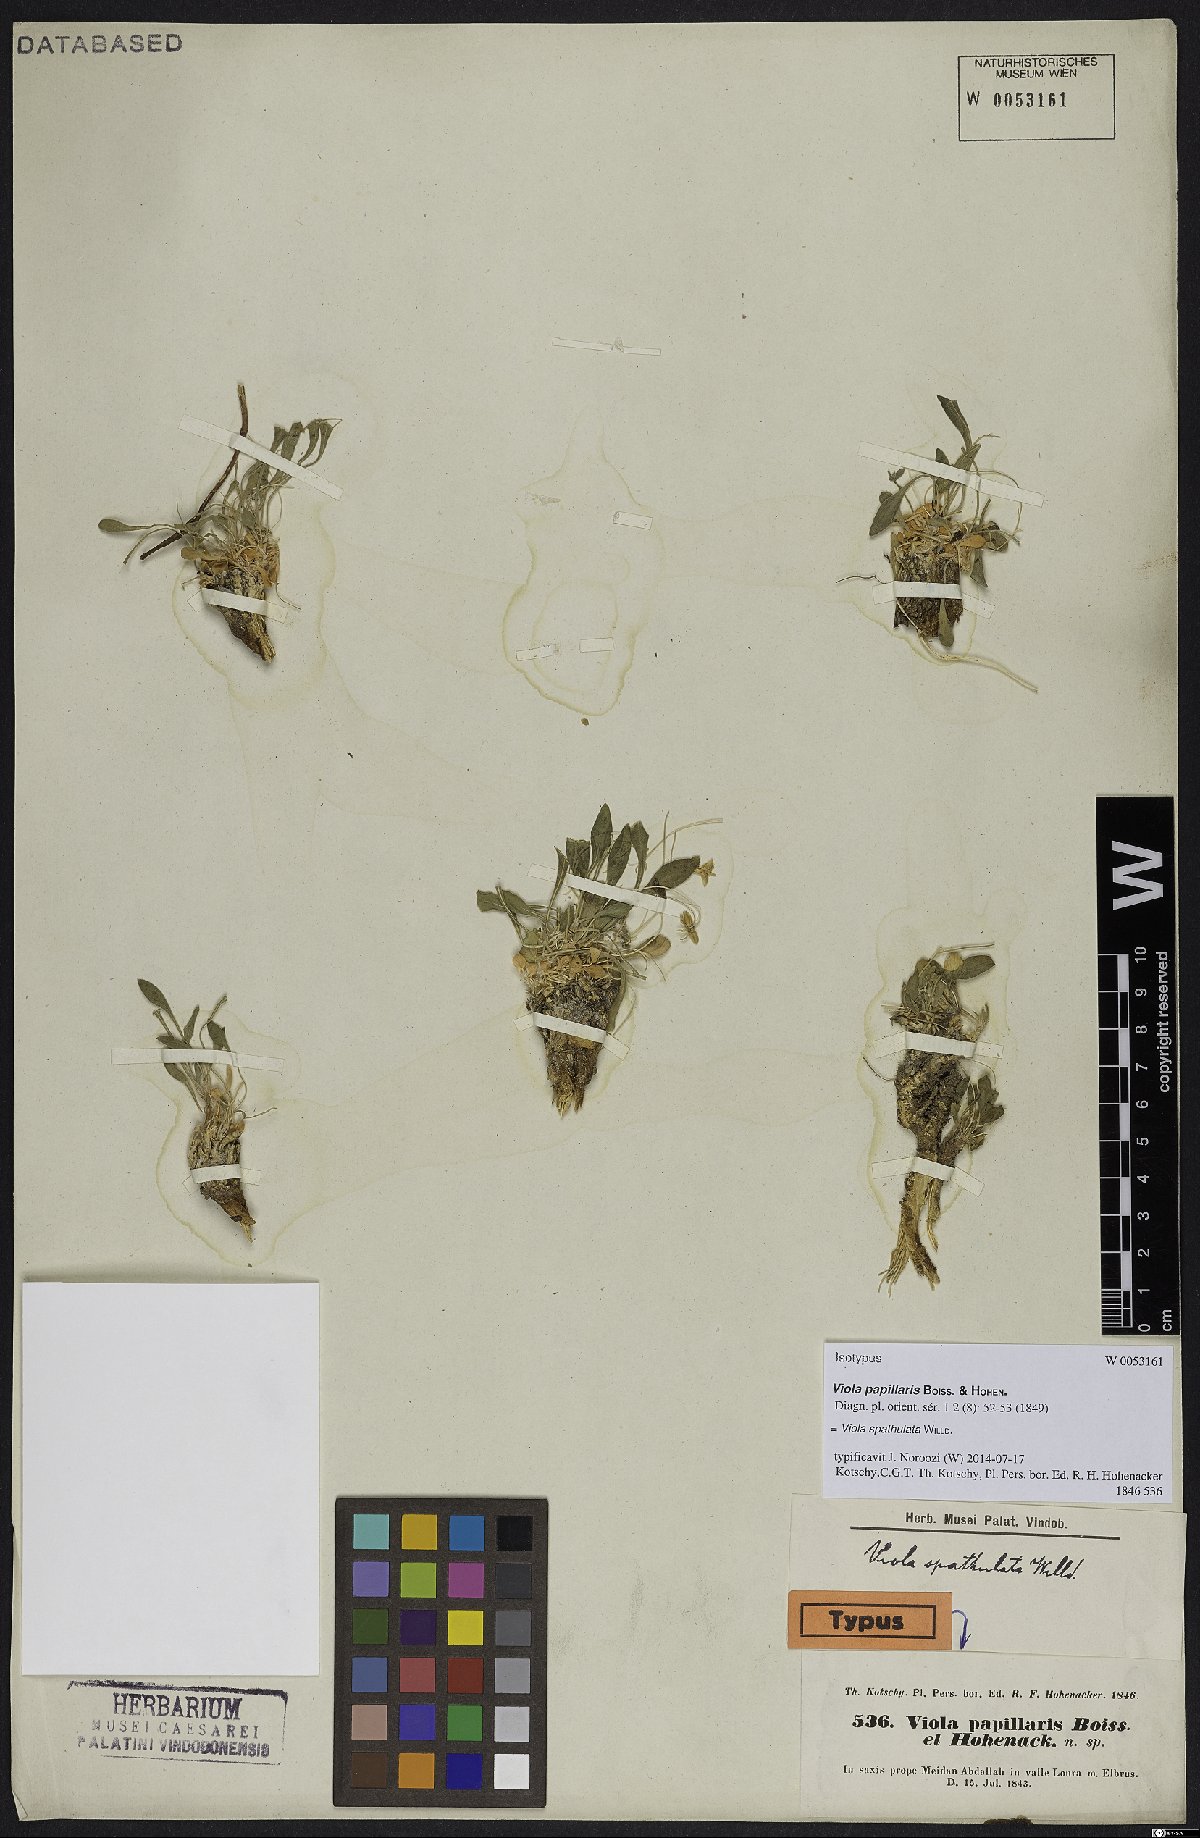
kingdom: Plantae
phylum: Tracheophyta
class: Magnoliopsida
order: Malpighiales
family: Violaceae
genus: Viola
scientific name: Viola spathulata
